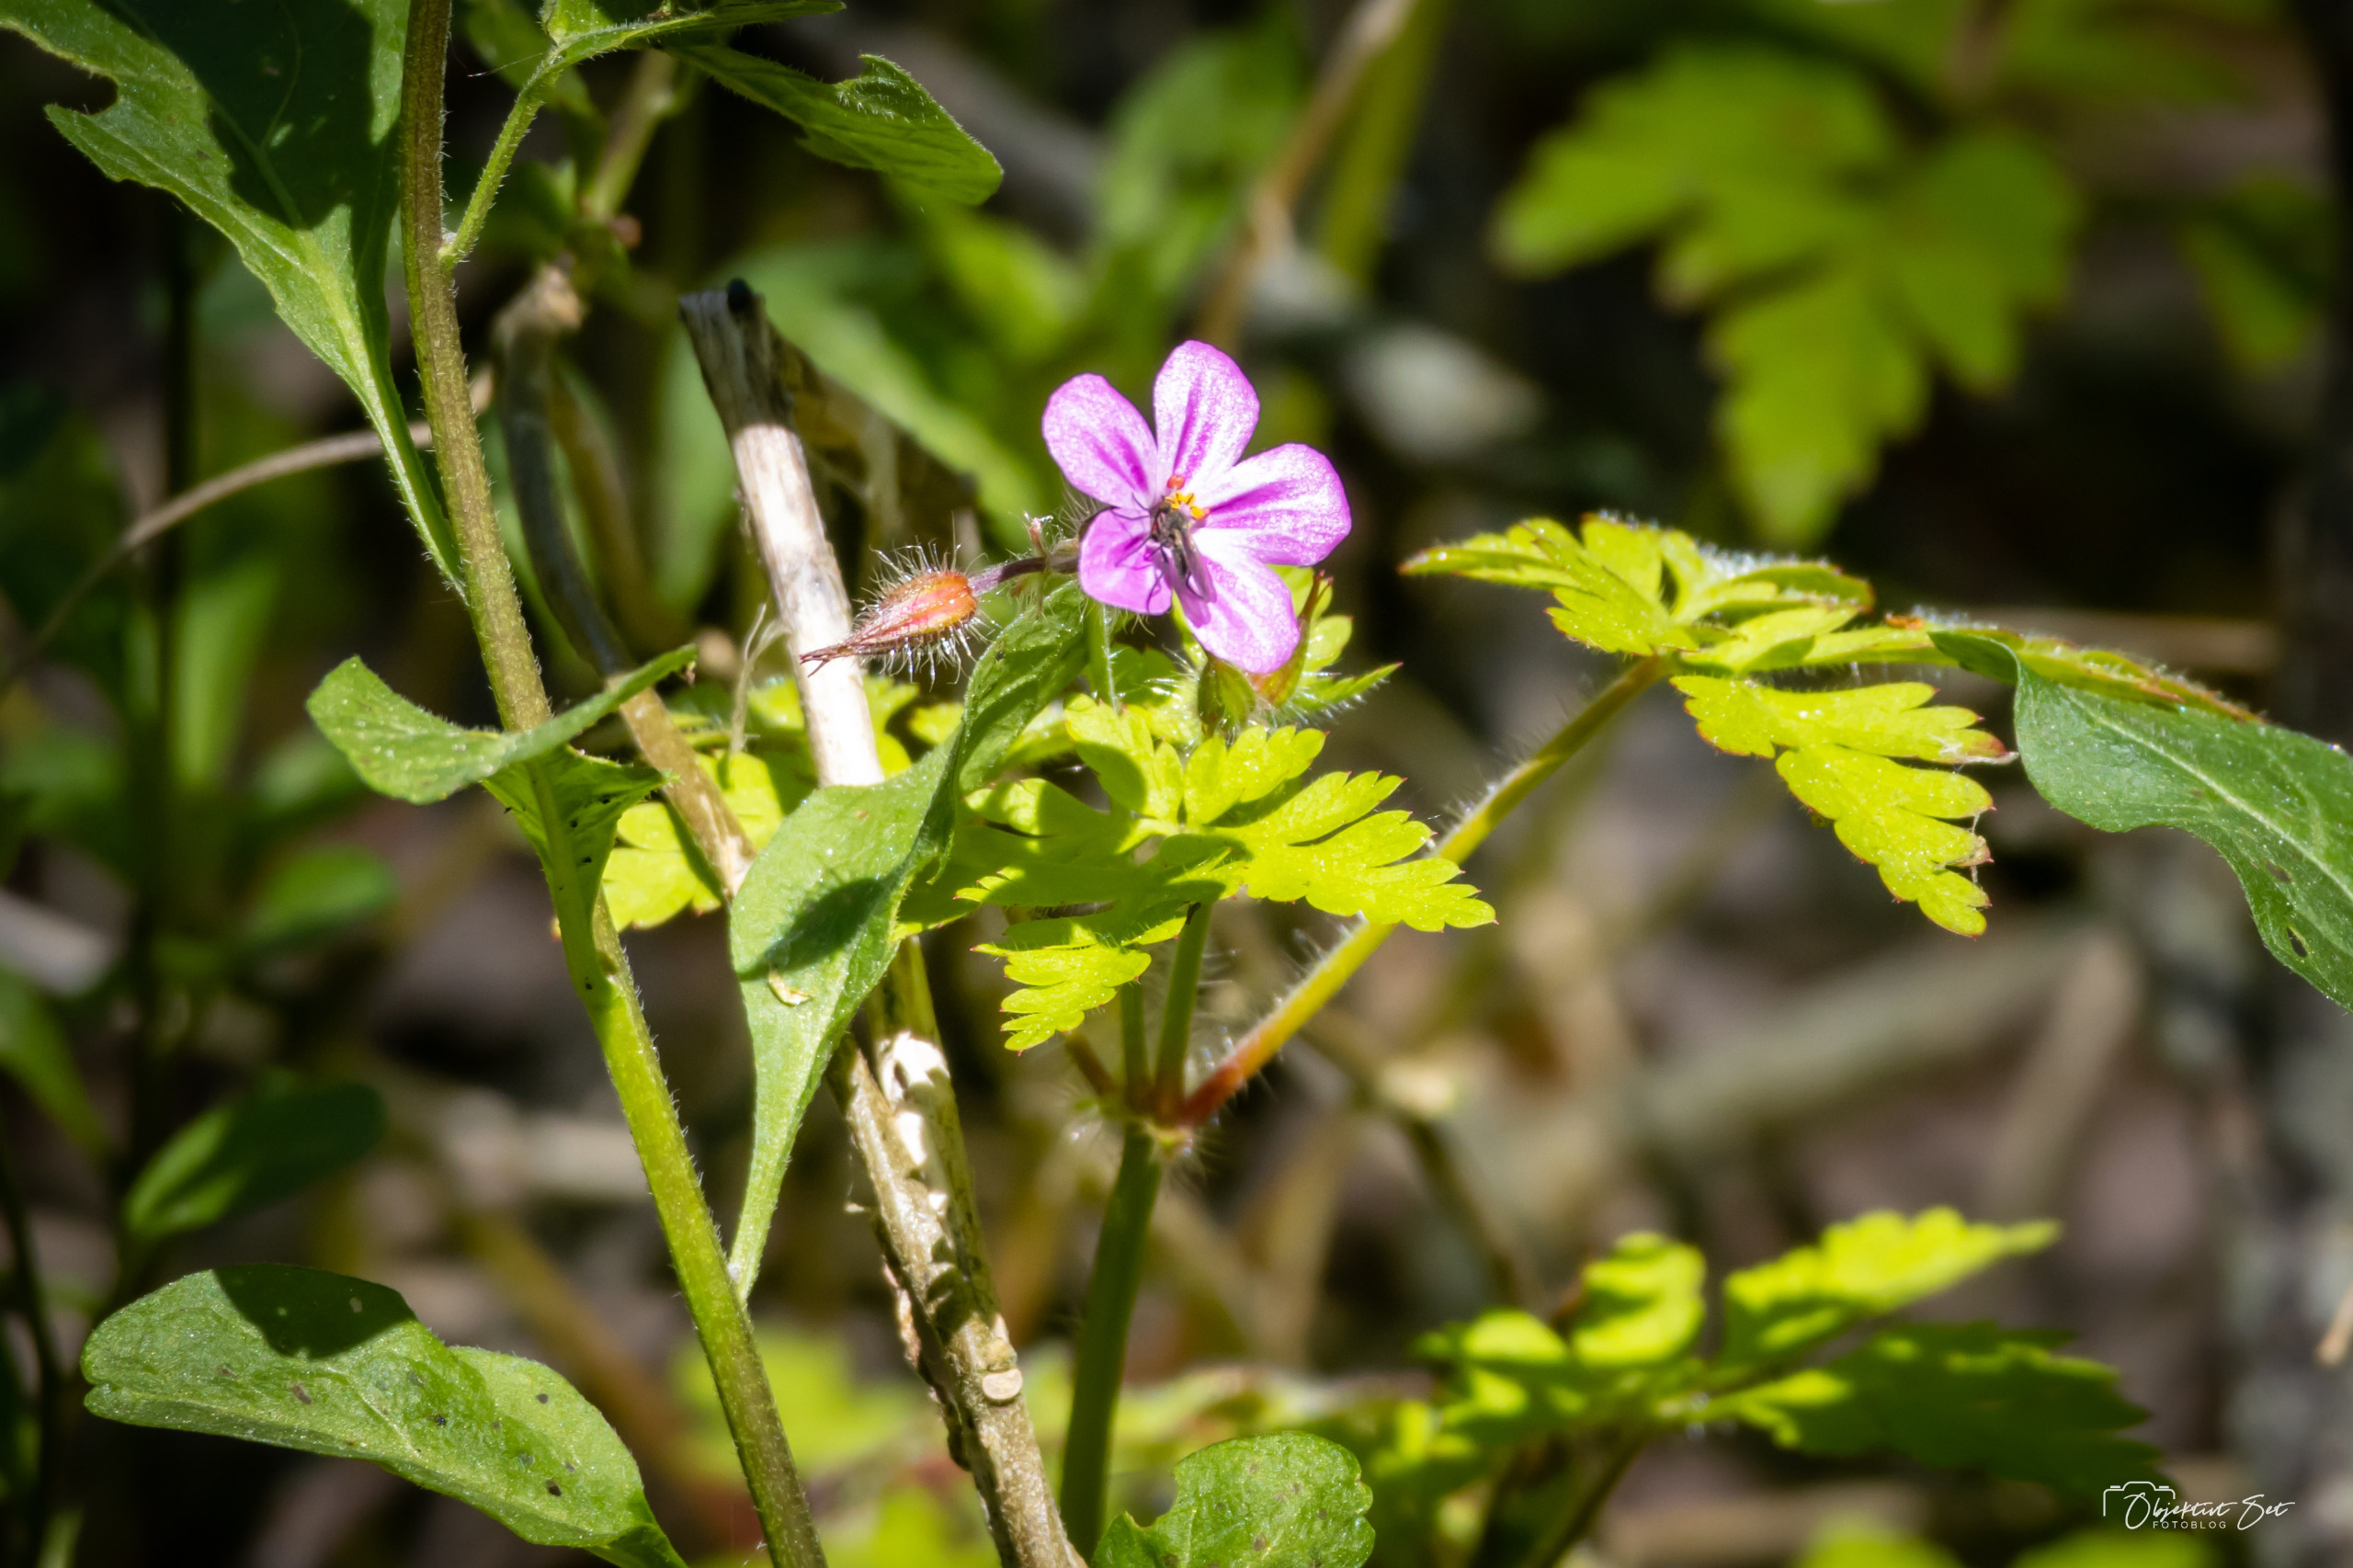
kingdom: Plantae
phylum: Tracheophyta
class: Magnoliopsida
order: Geraniales
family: Geraniaceae
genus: Geranium
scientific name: Geranium robertianum
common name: Stinkende storkenæb
